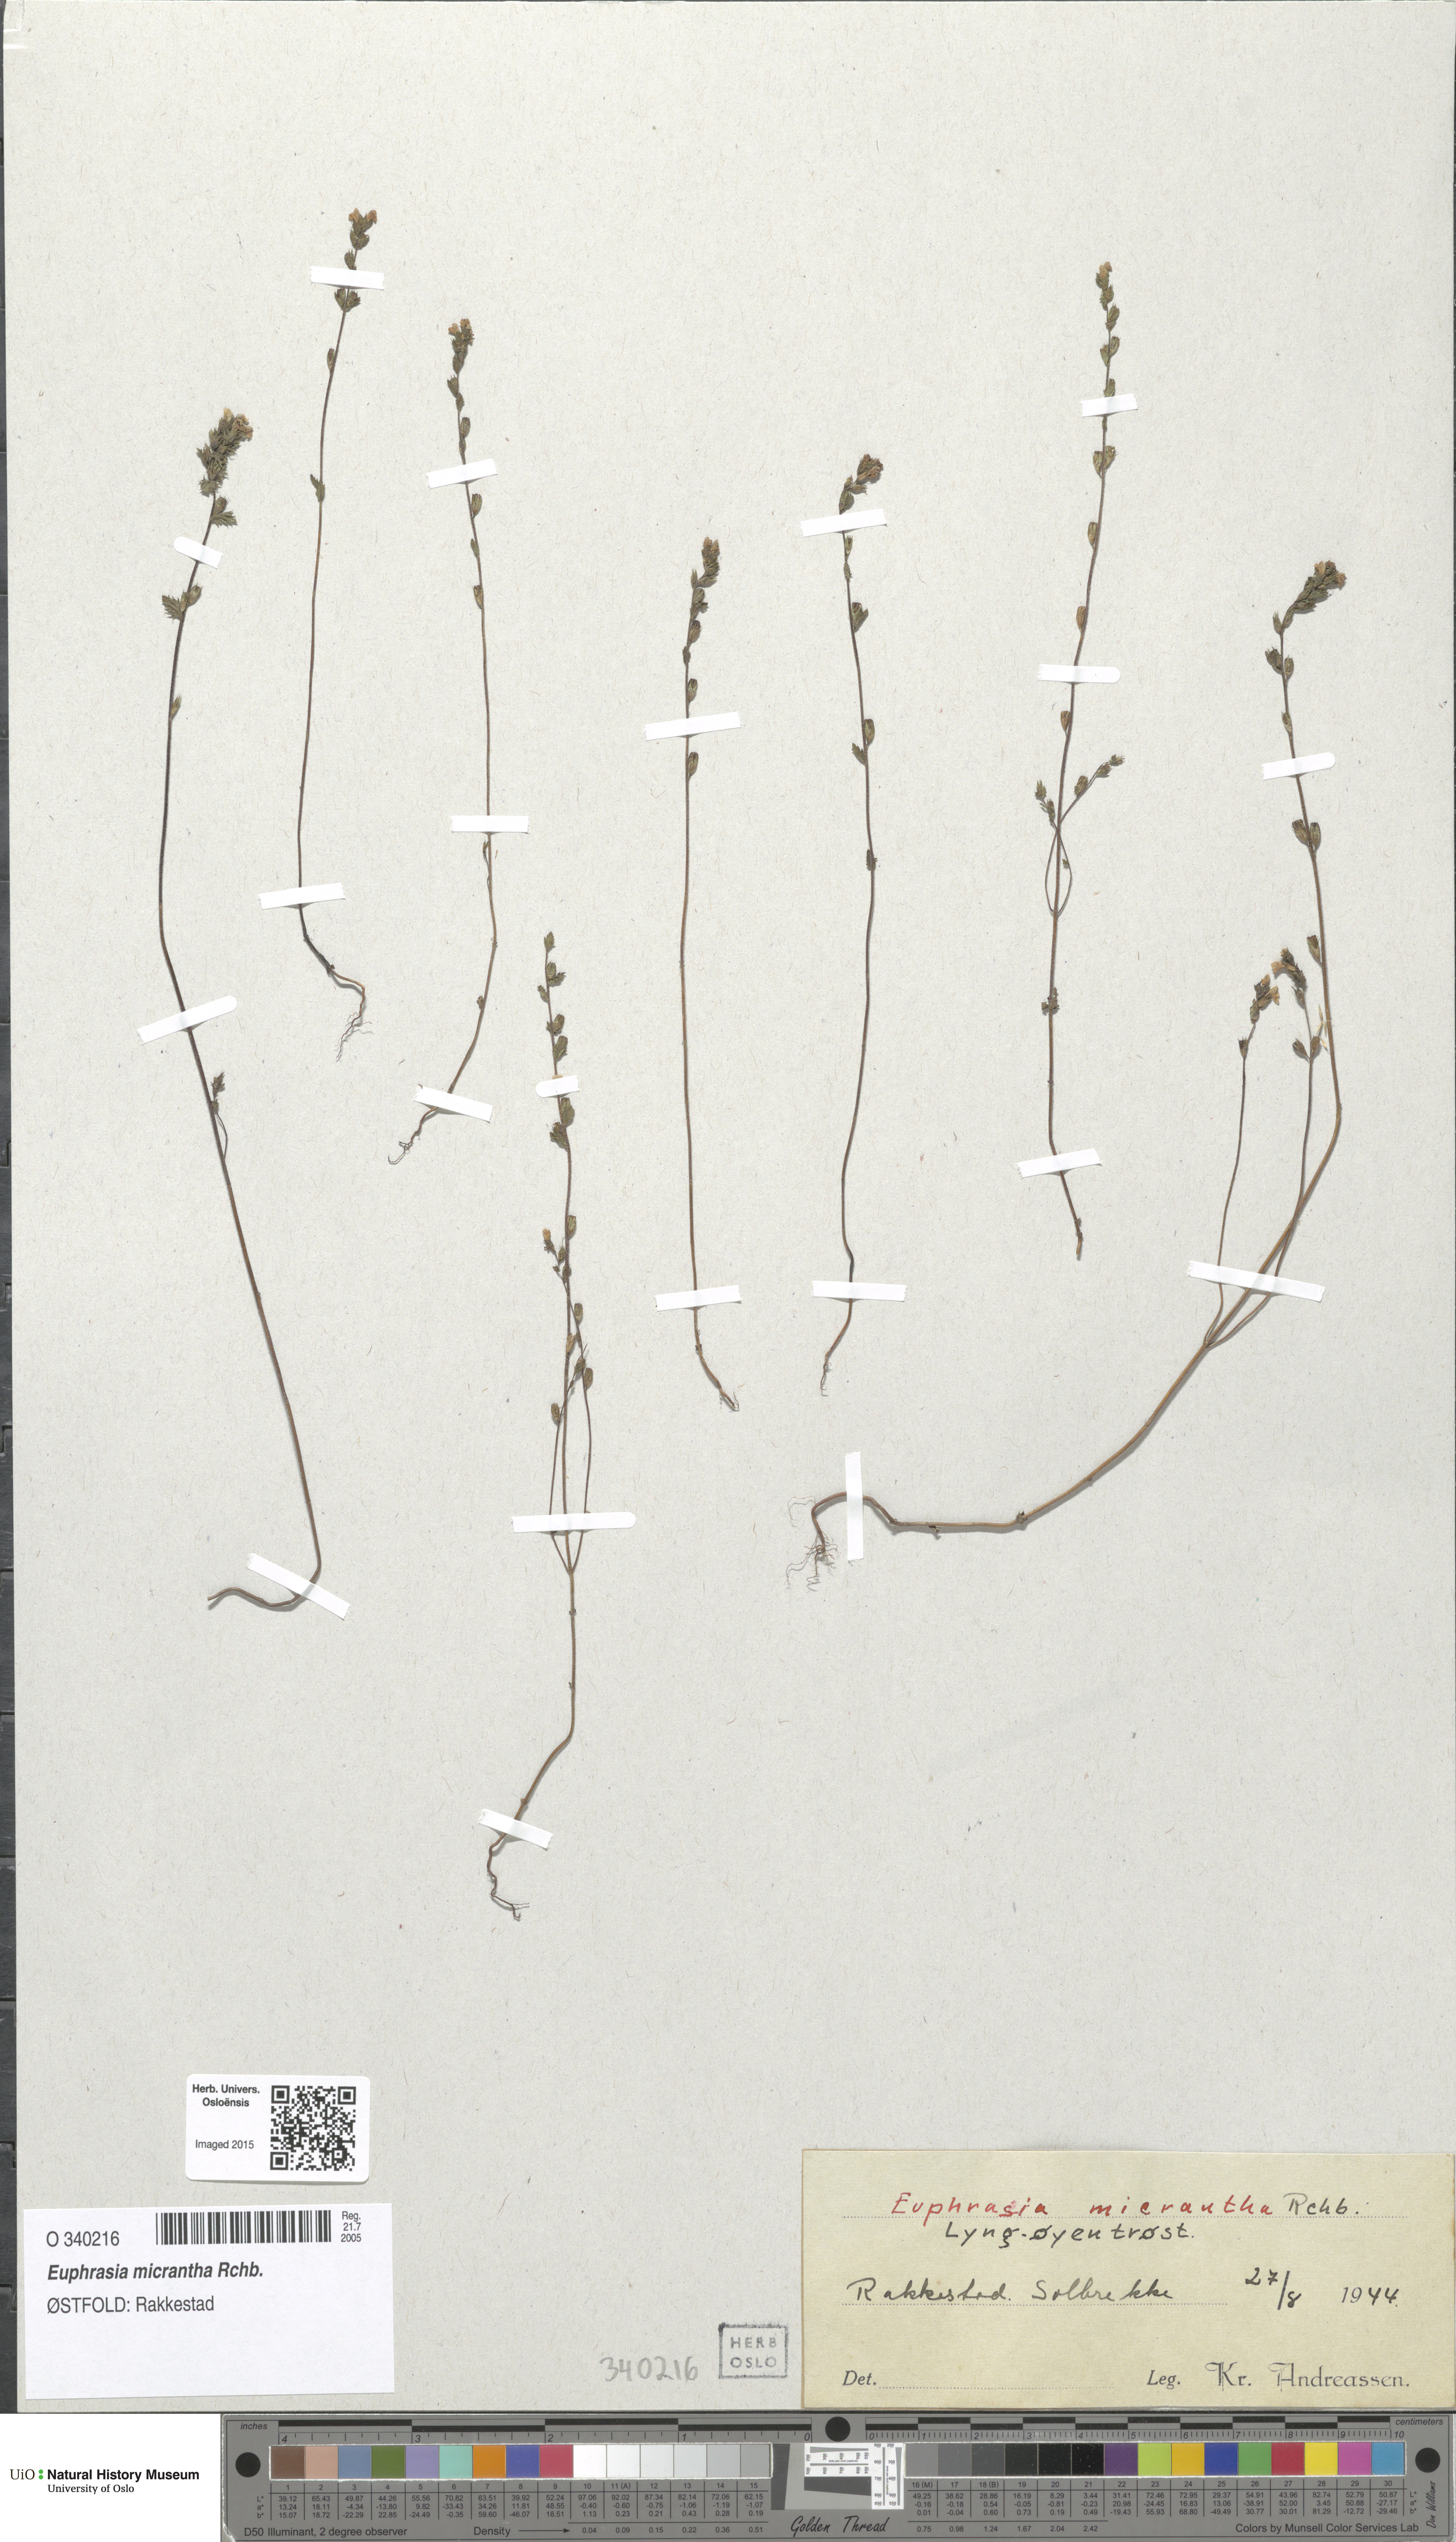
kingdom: Plantae
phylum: Tracheophyta
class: Magnoliopsida
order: Lamiales
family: Orobanchaceae
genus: Euphrasia
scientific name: Euphrasia micrantha
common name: Northern eyebright
